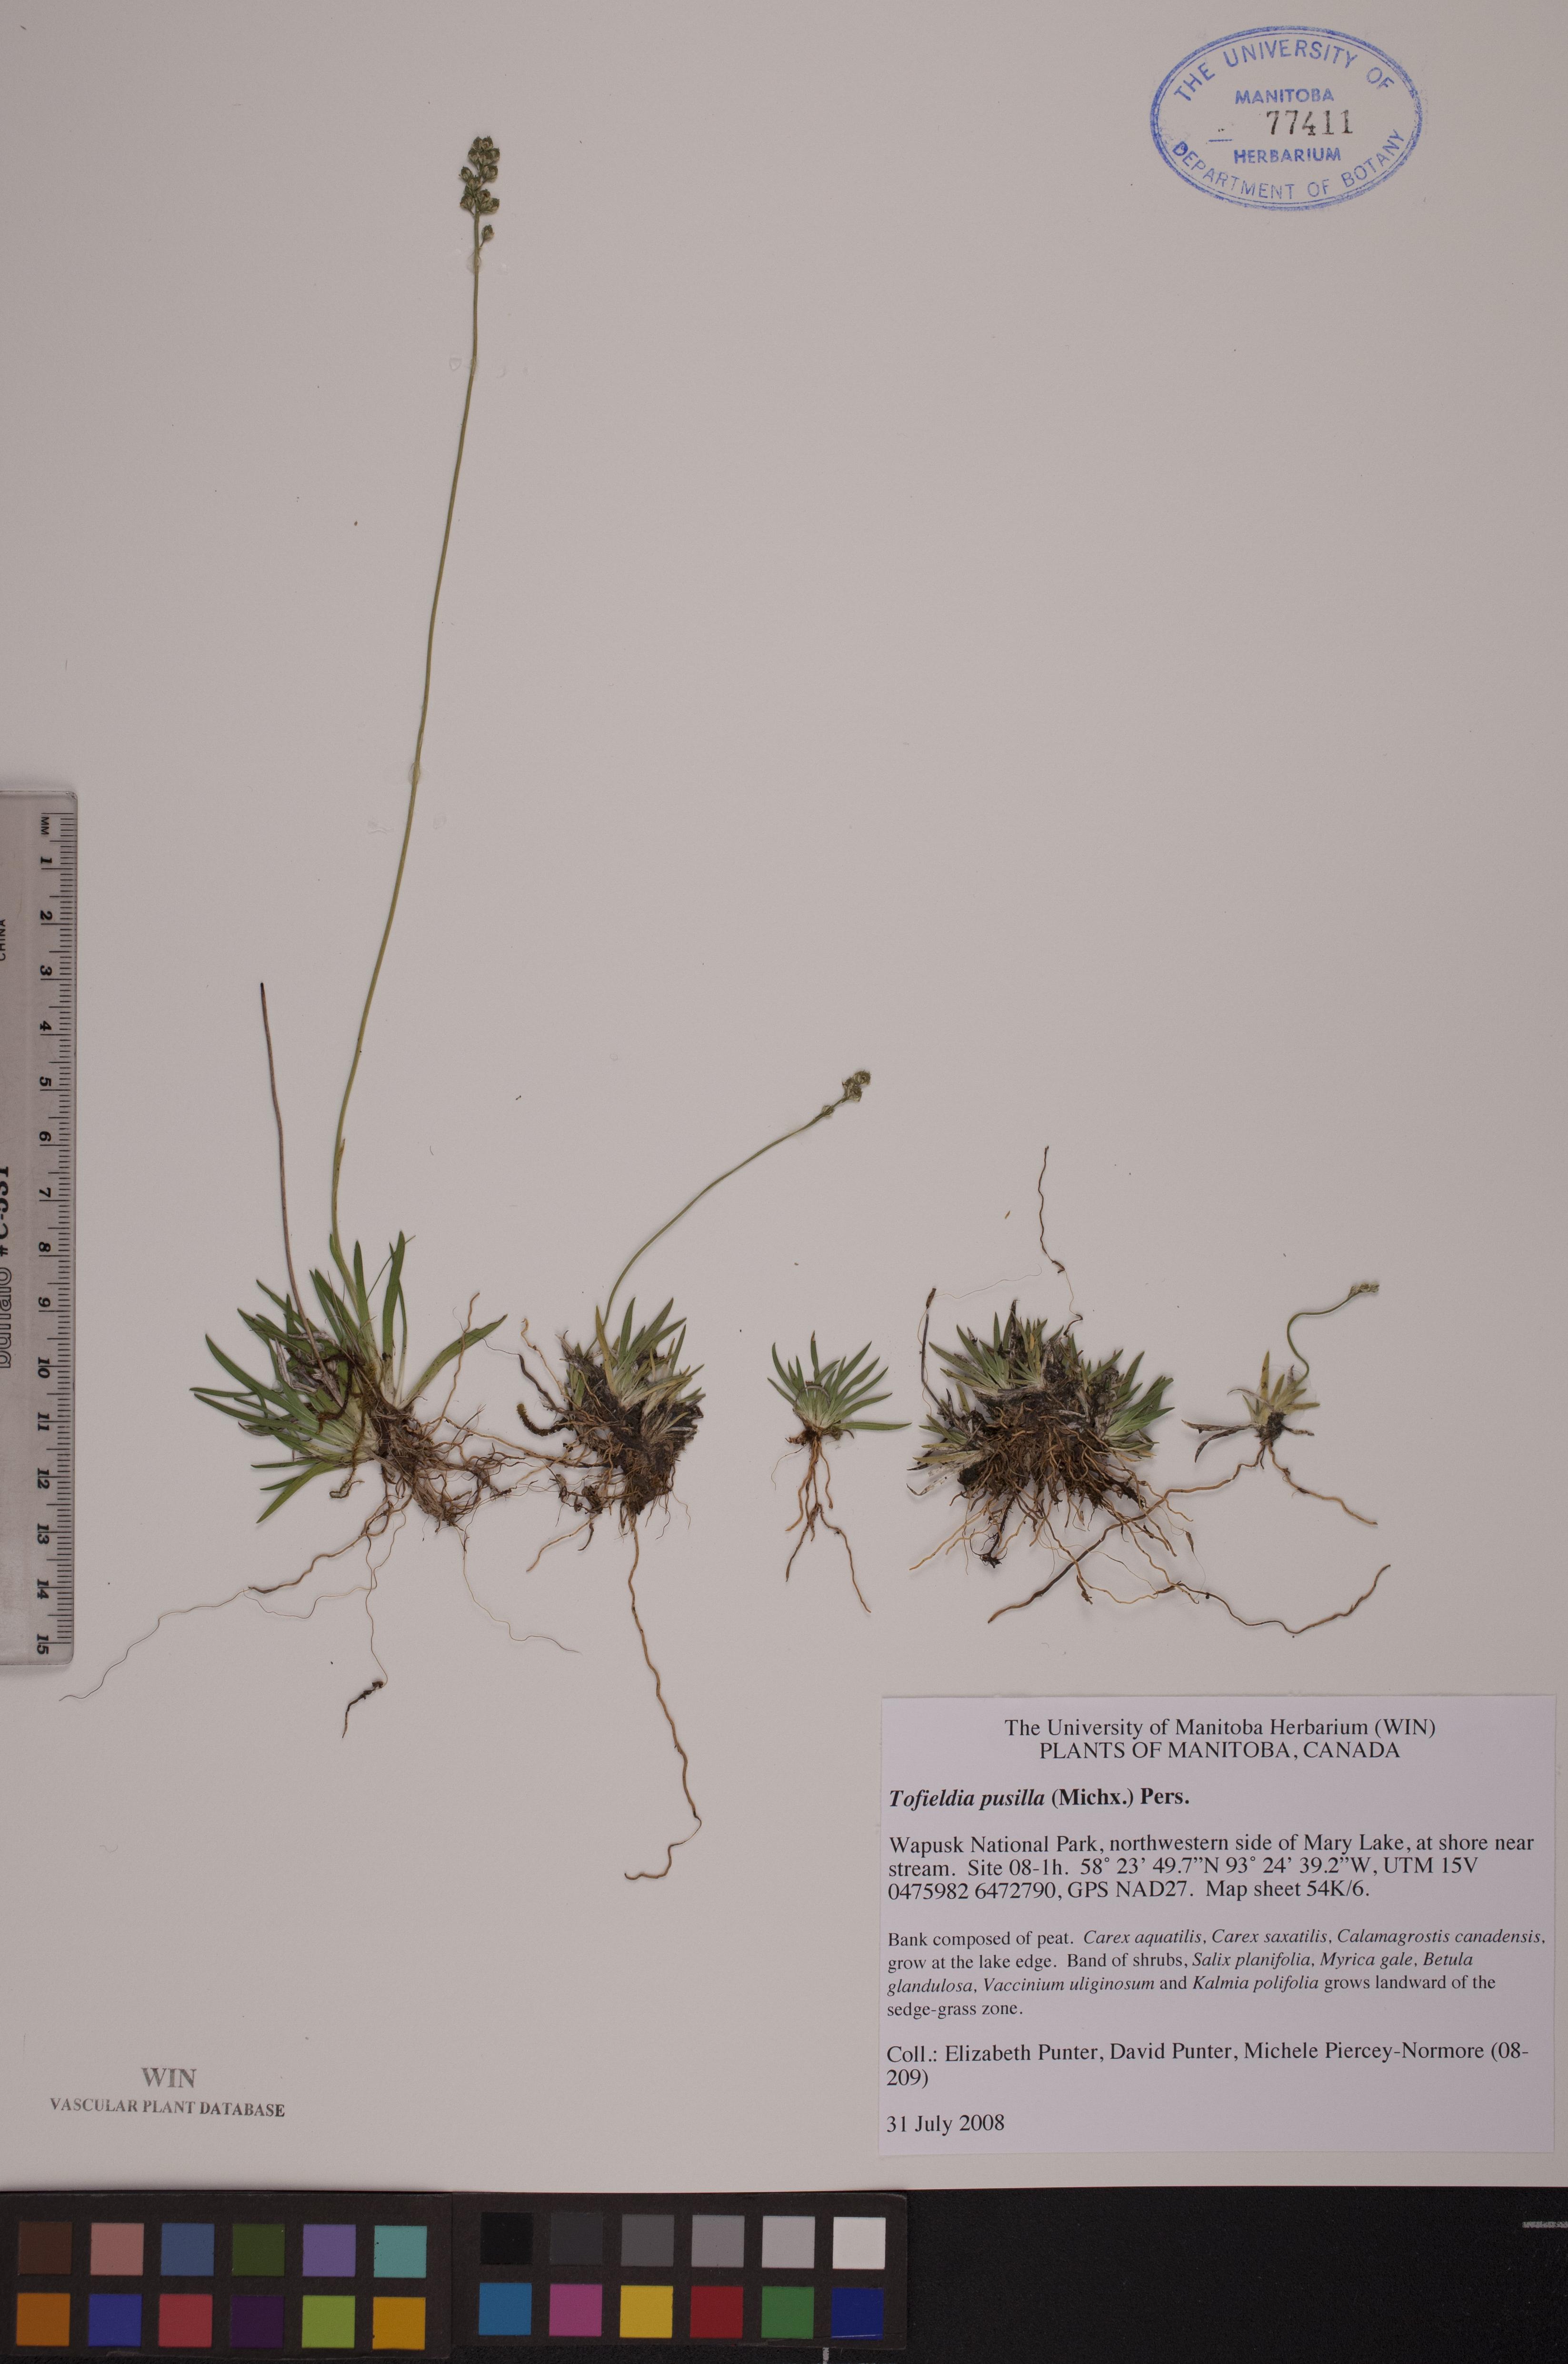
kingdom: Plantae
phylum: Tracheophyta
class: Liliopsida
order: Alismatales
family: Tofieldiaceae
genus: Tofieldia
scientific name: Tofieldia pusilla
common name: Scottish false asphodel
